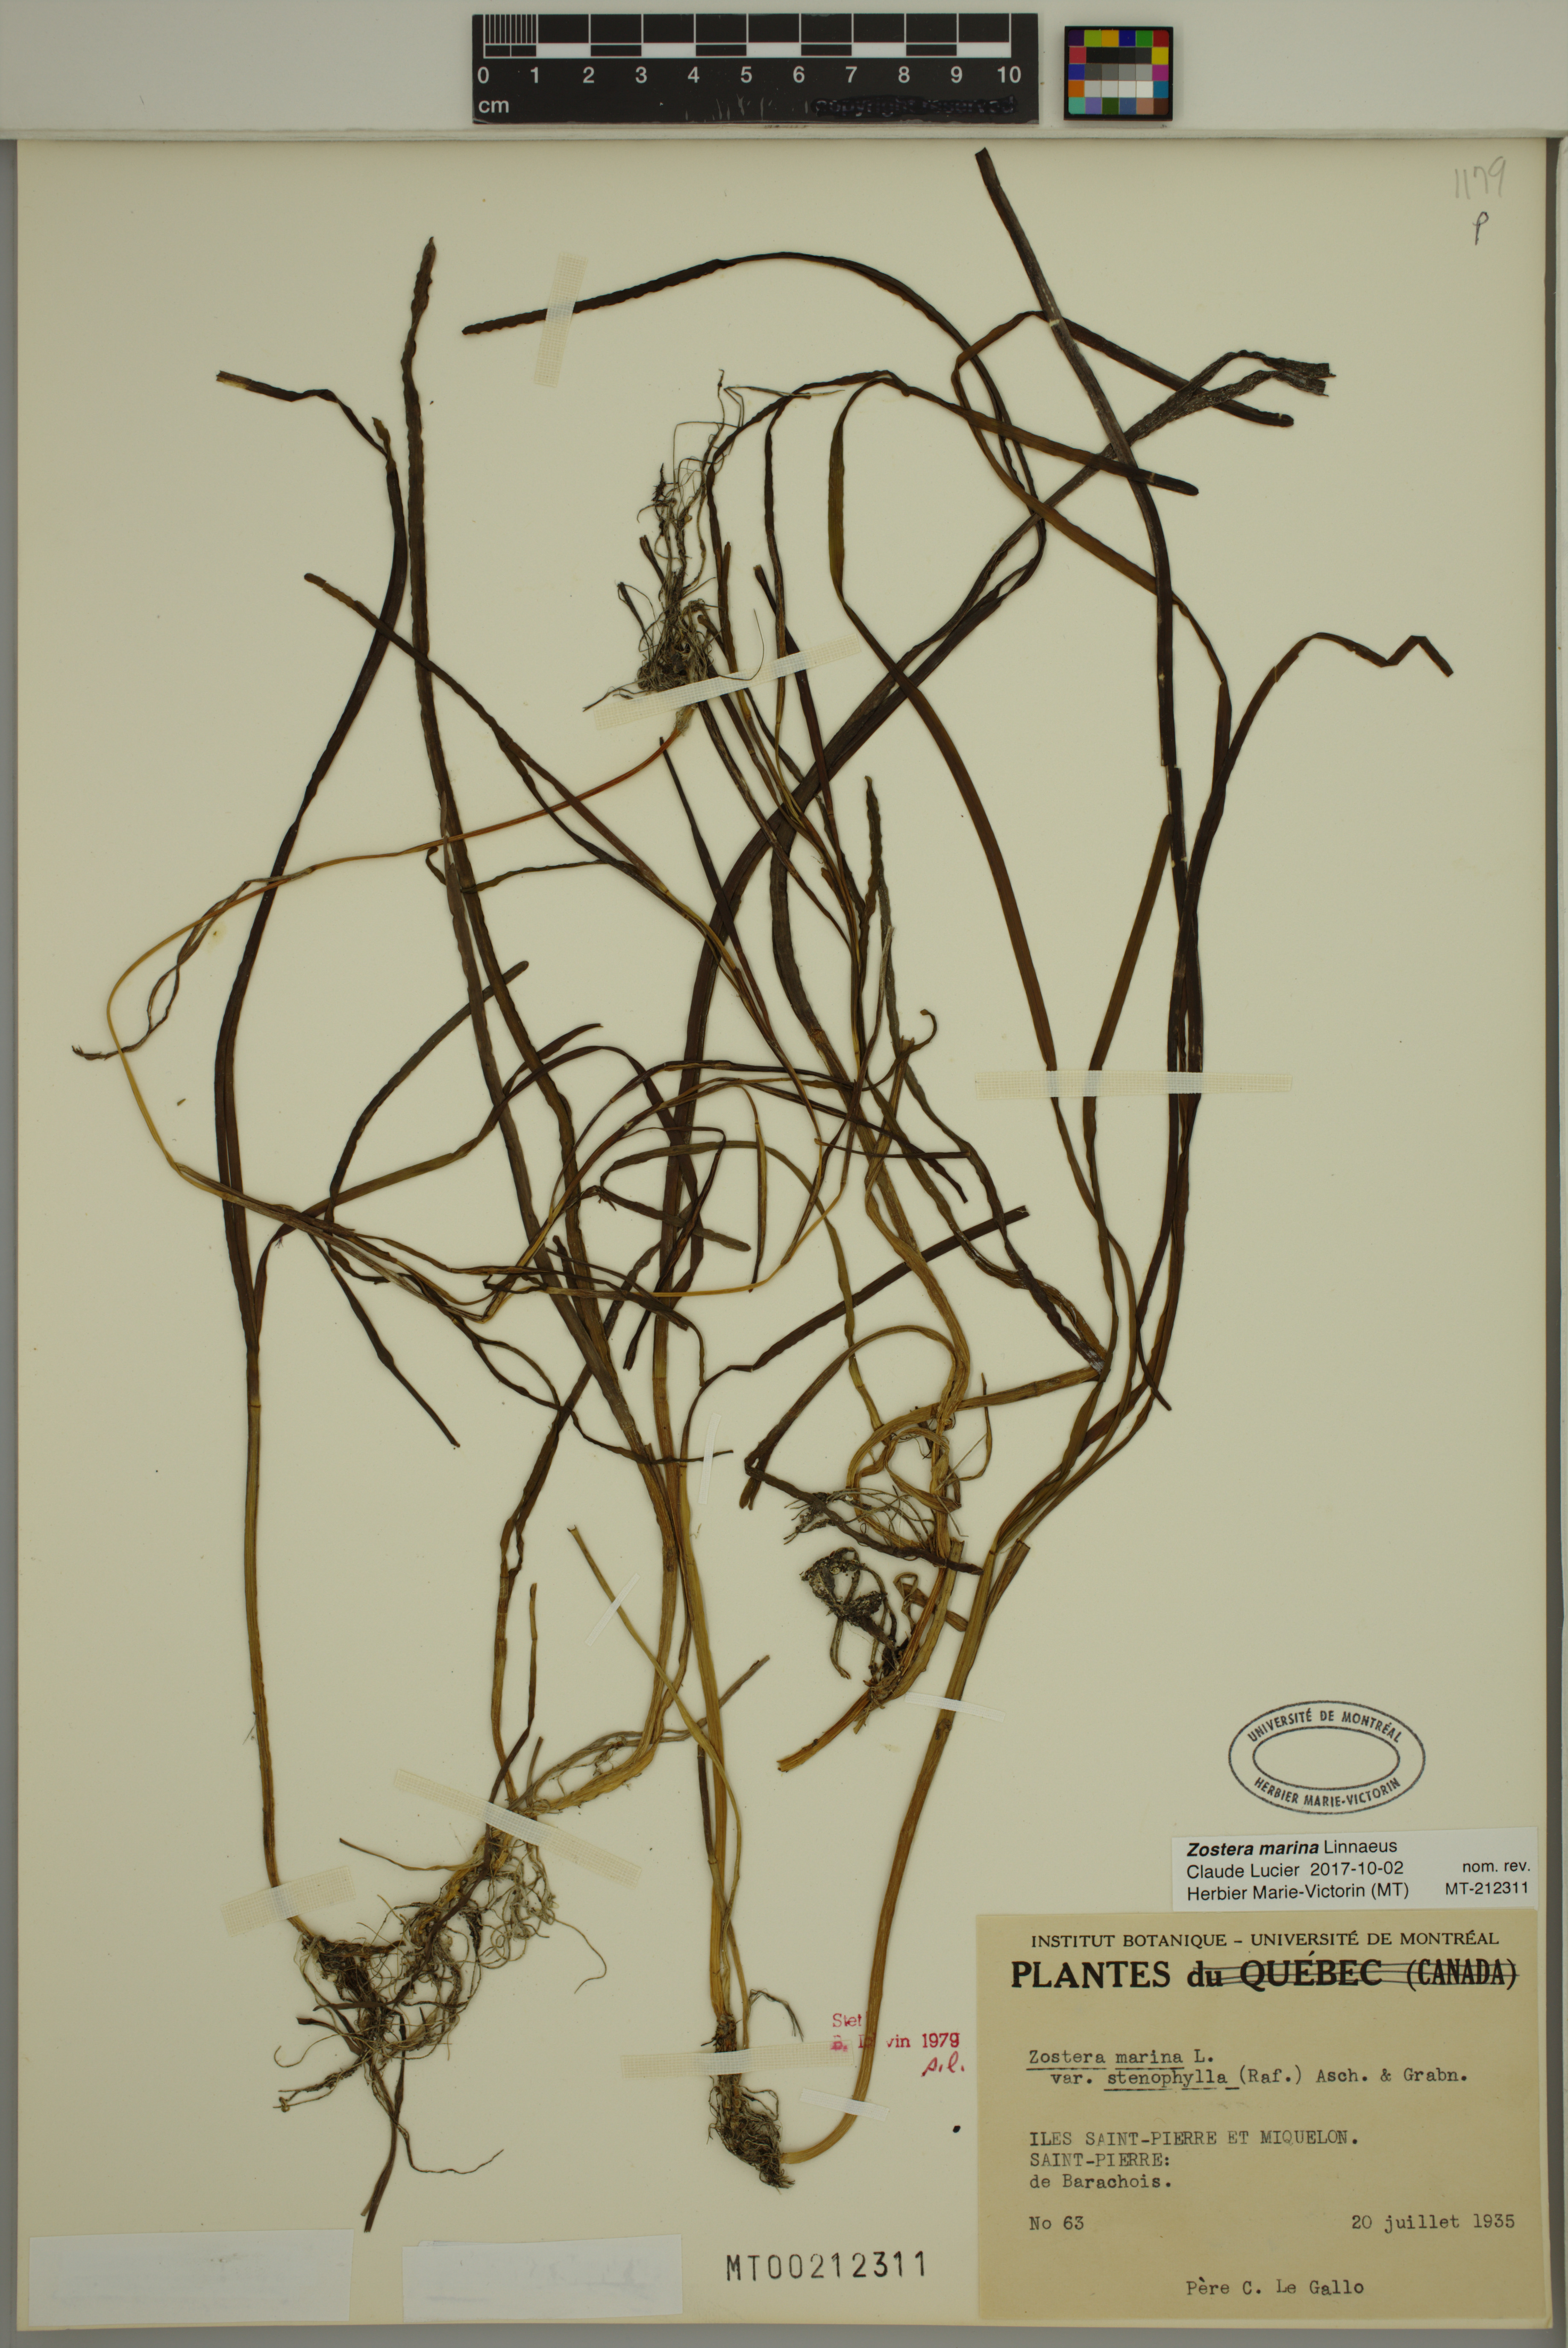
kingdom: Plantae
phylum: Tracheophyta
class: Liliopsida
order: Alismatales
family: Zosteraceae
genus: Zostera
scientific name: Zostera marina
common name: Eelgrass
